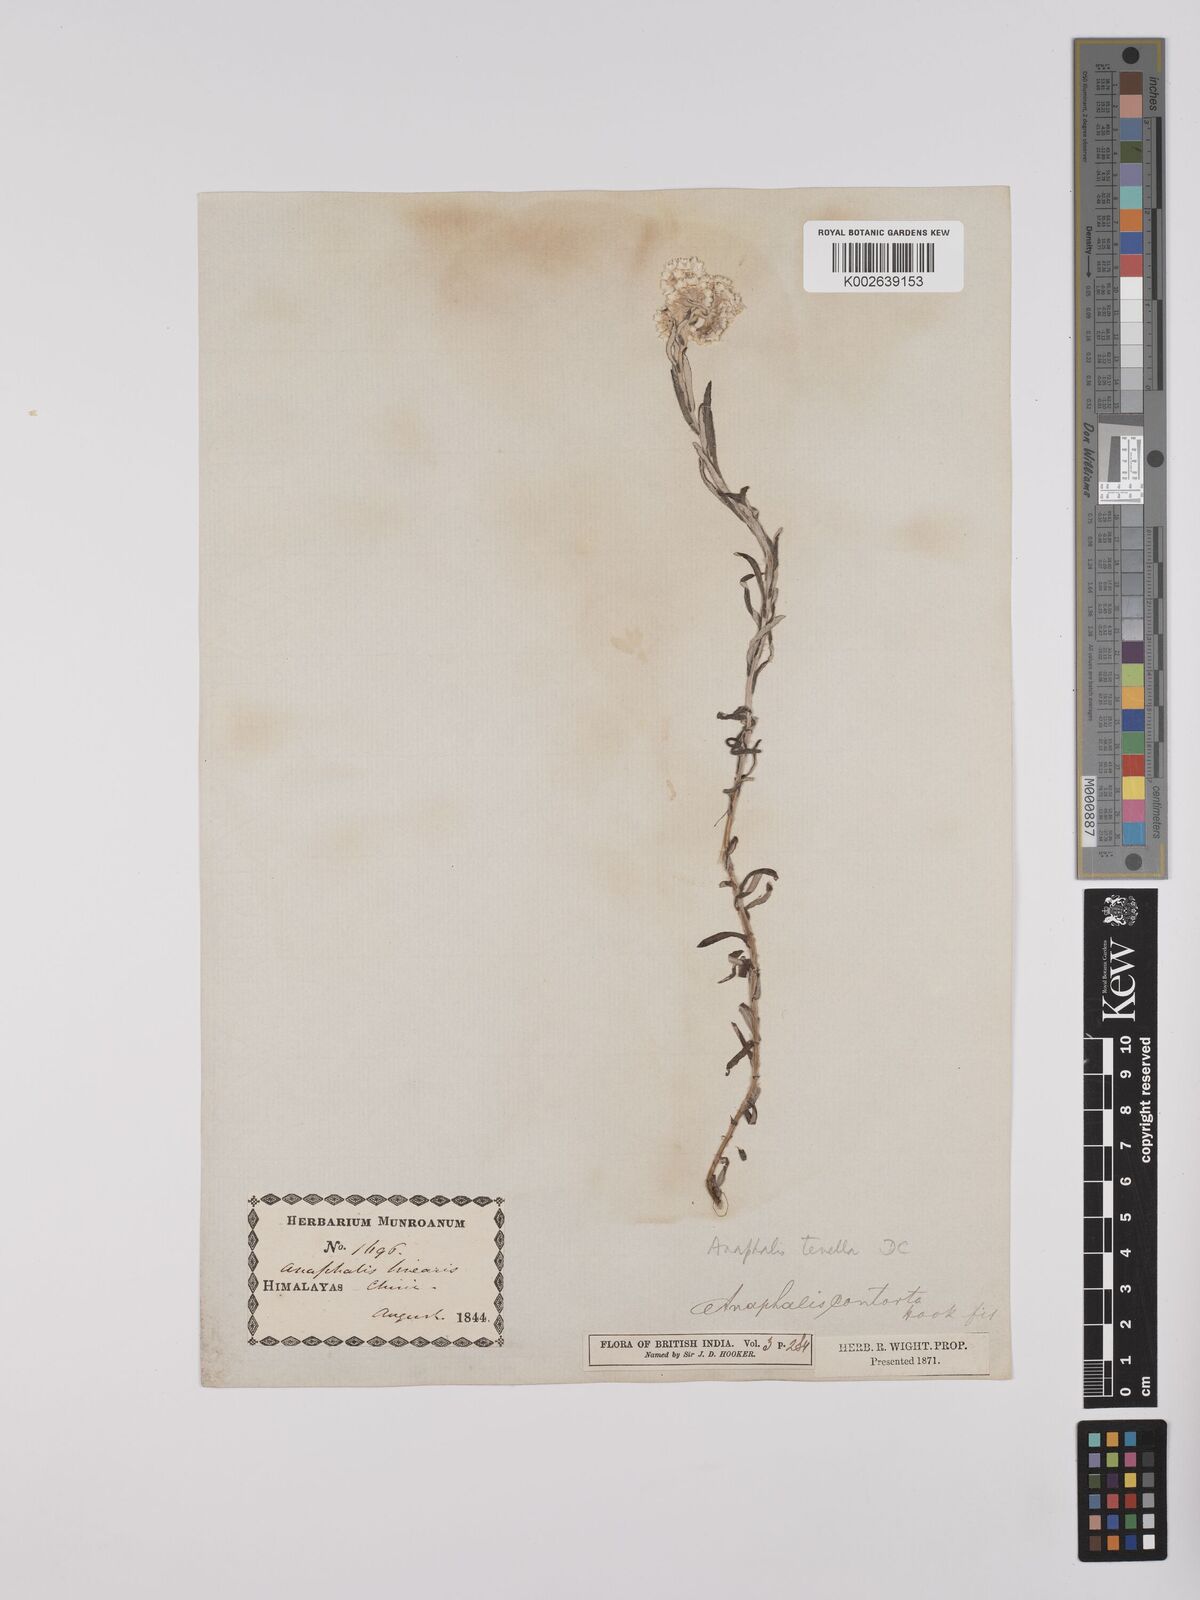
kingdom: Plantae
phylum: Tracheophyta
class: Magnoliopsida
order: Asterales
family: Asteraceae
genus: Anaphalis
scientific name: Anaphalis contorta
